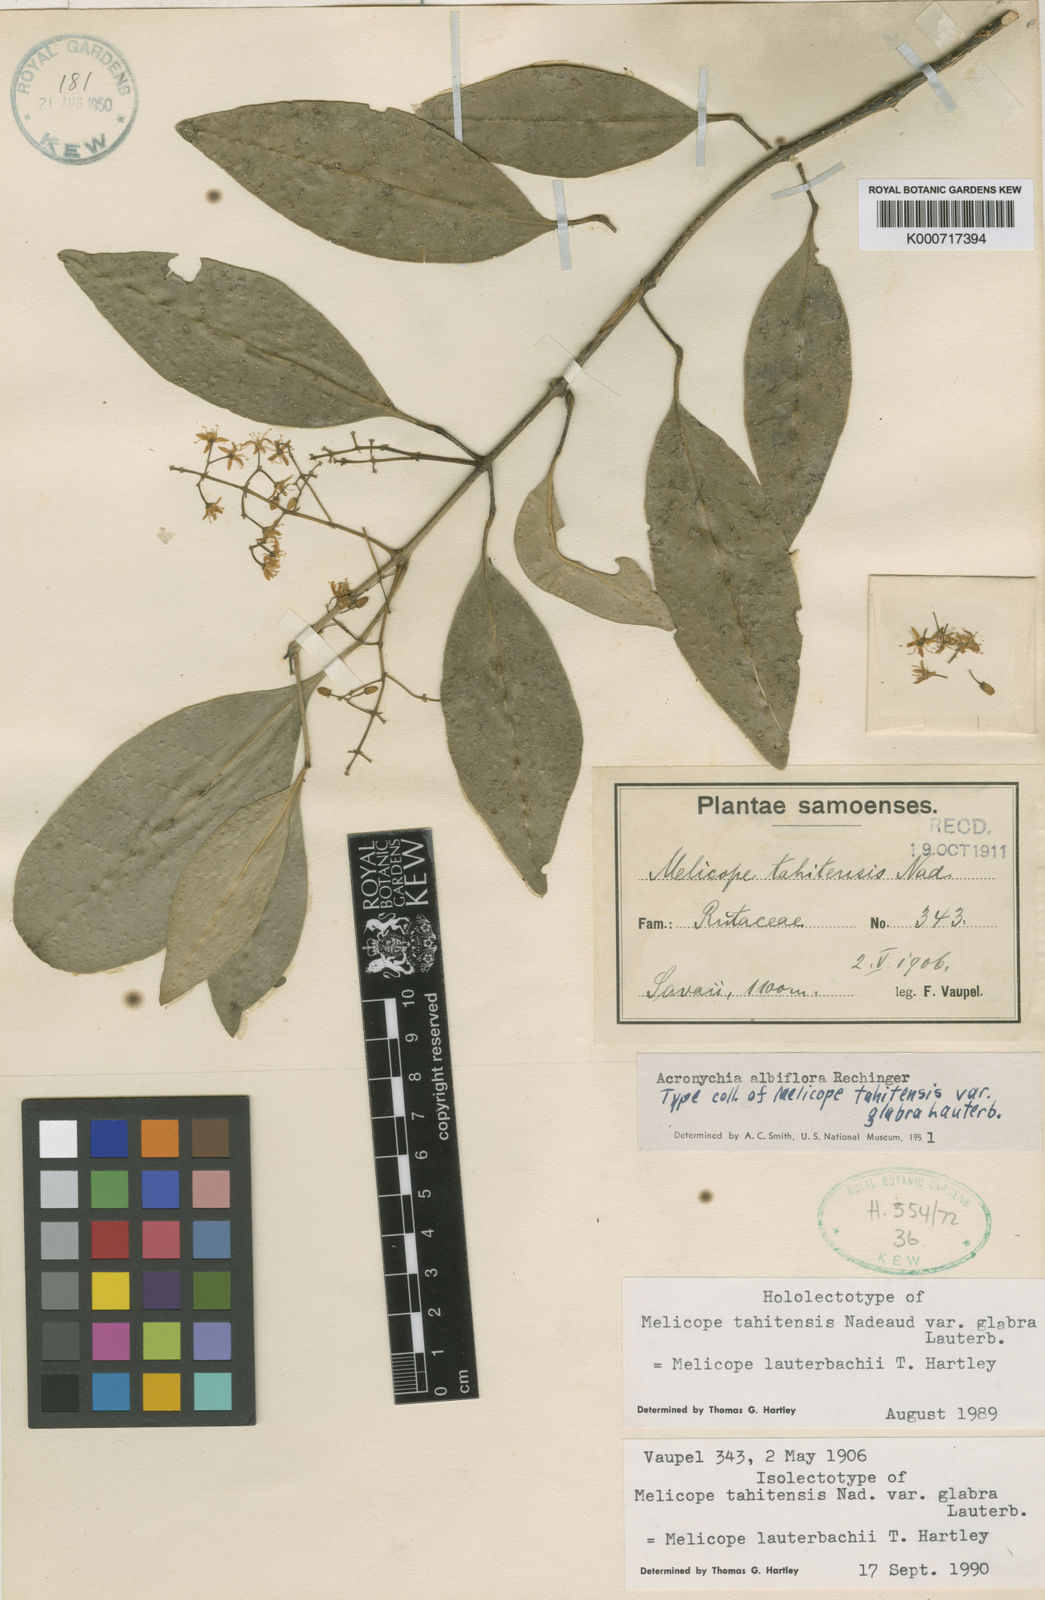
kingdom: Plantae
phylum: Tracheophyta
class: Magnoliopsida
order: Sapindales
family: Rutaceae
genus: Melicope
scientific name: Melicope lauterbachii
